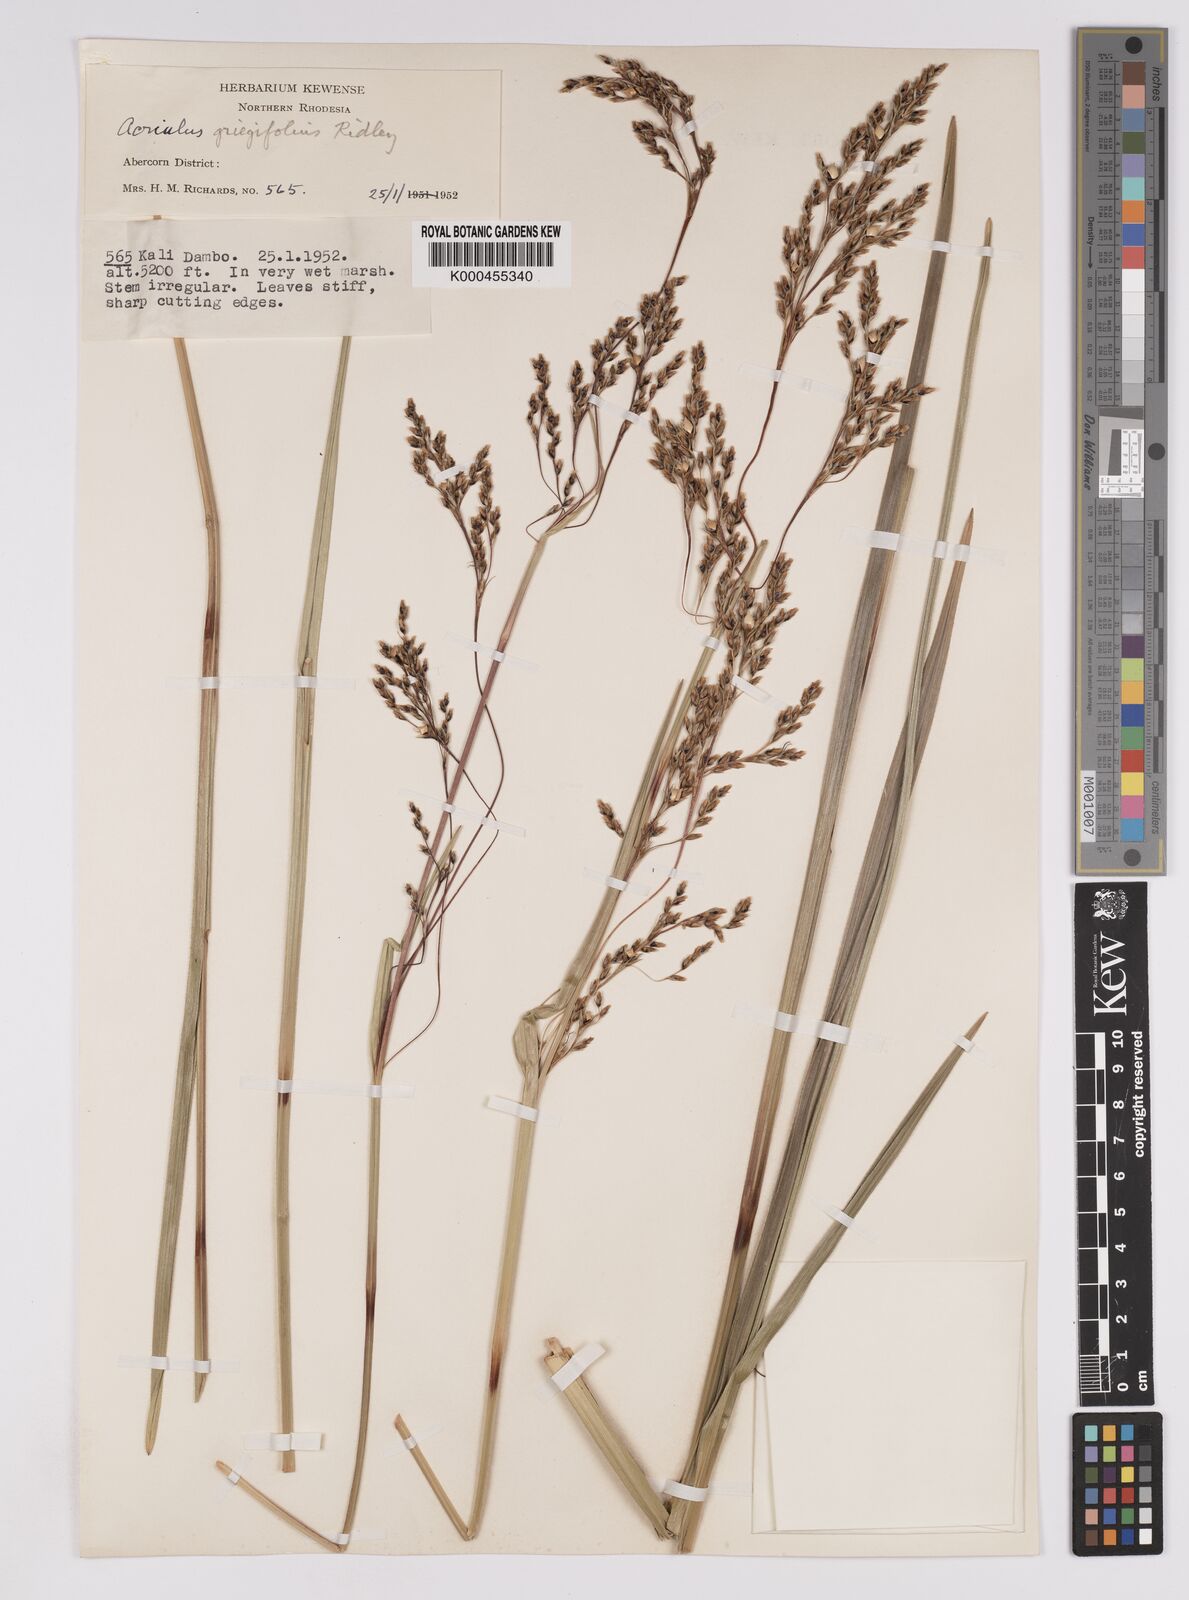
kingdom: Plantae
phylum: Tracheophyta
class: Liliopsida
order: Poales
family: Cyperaceae
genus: Scleria
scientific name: Scleria greigiifolia
